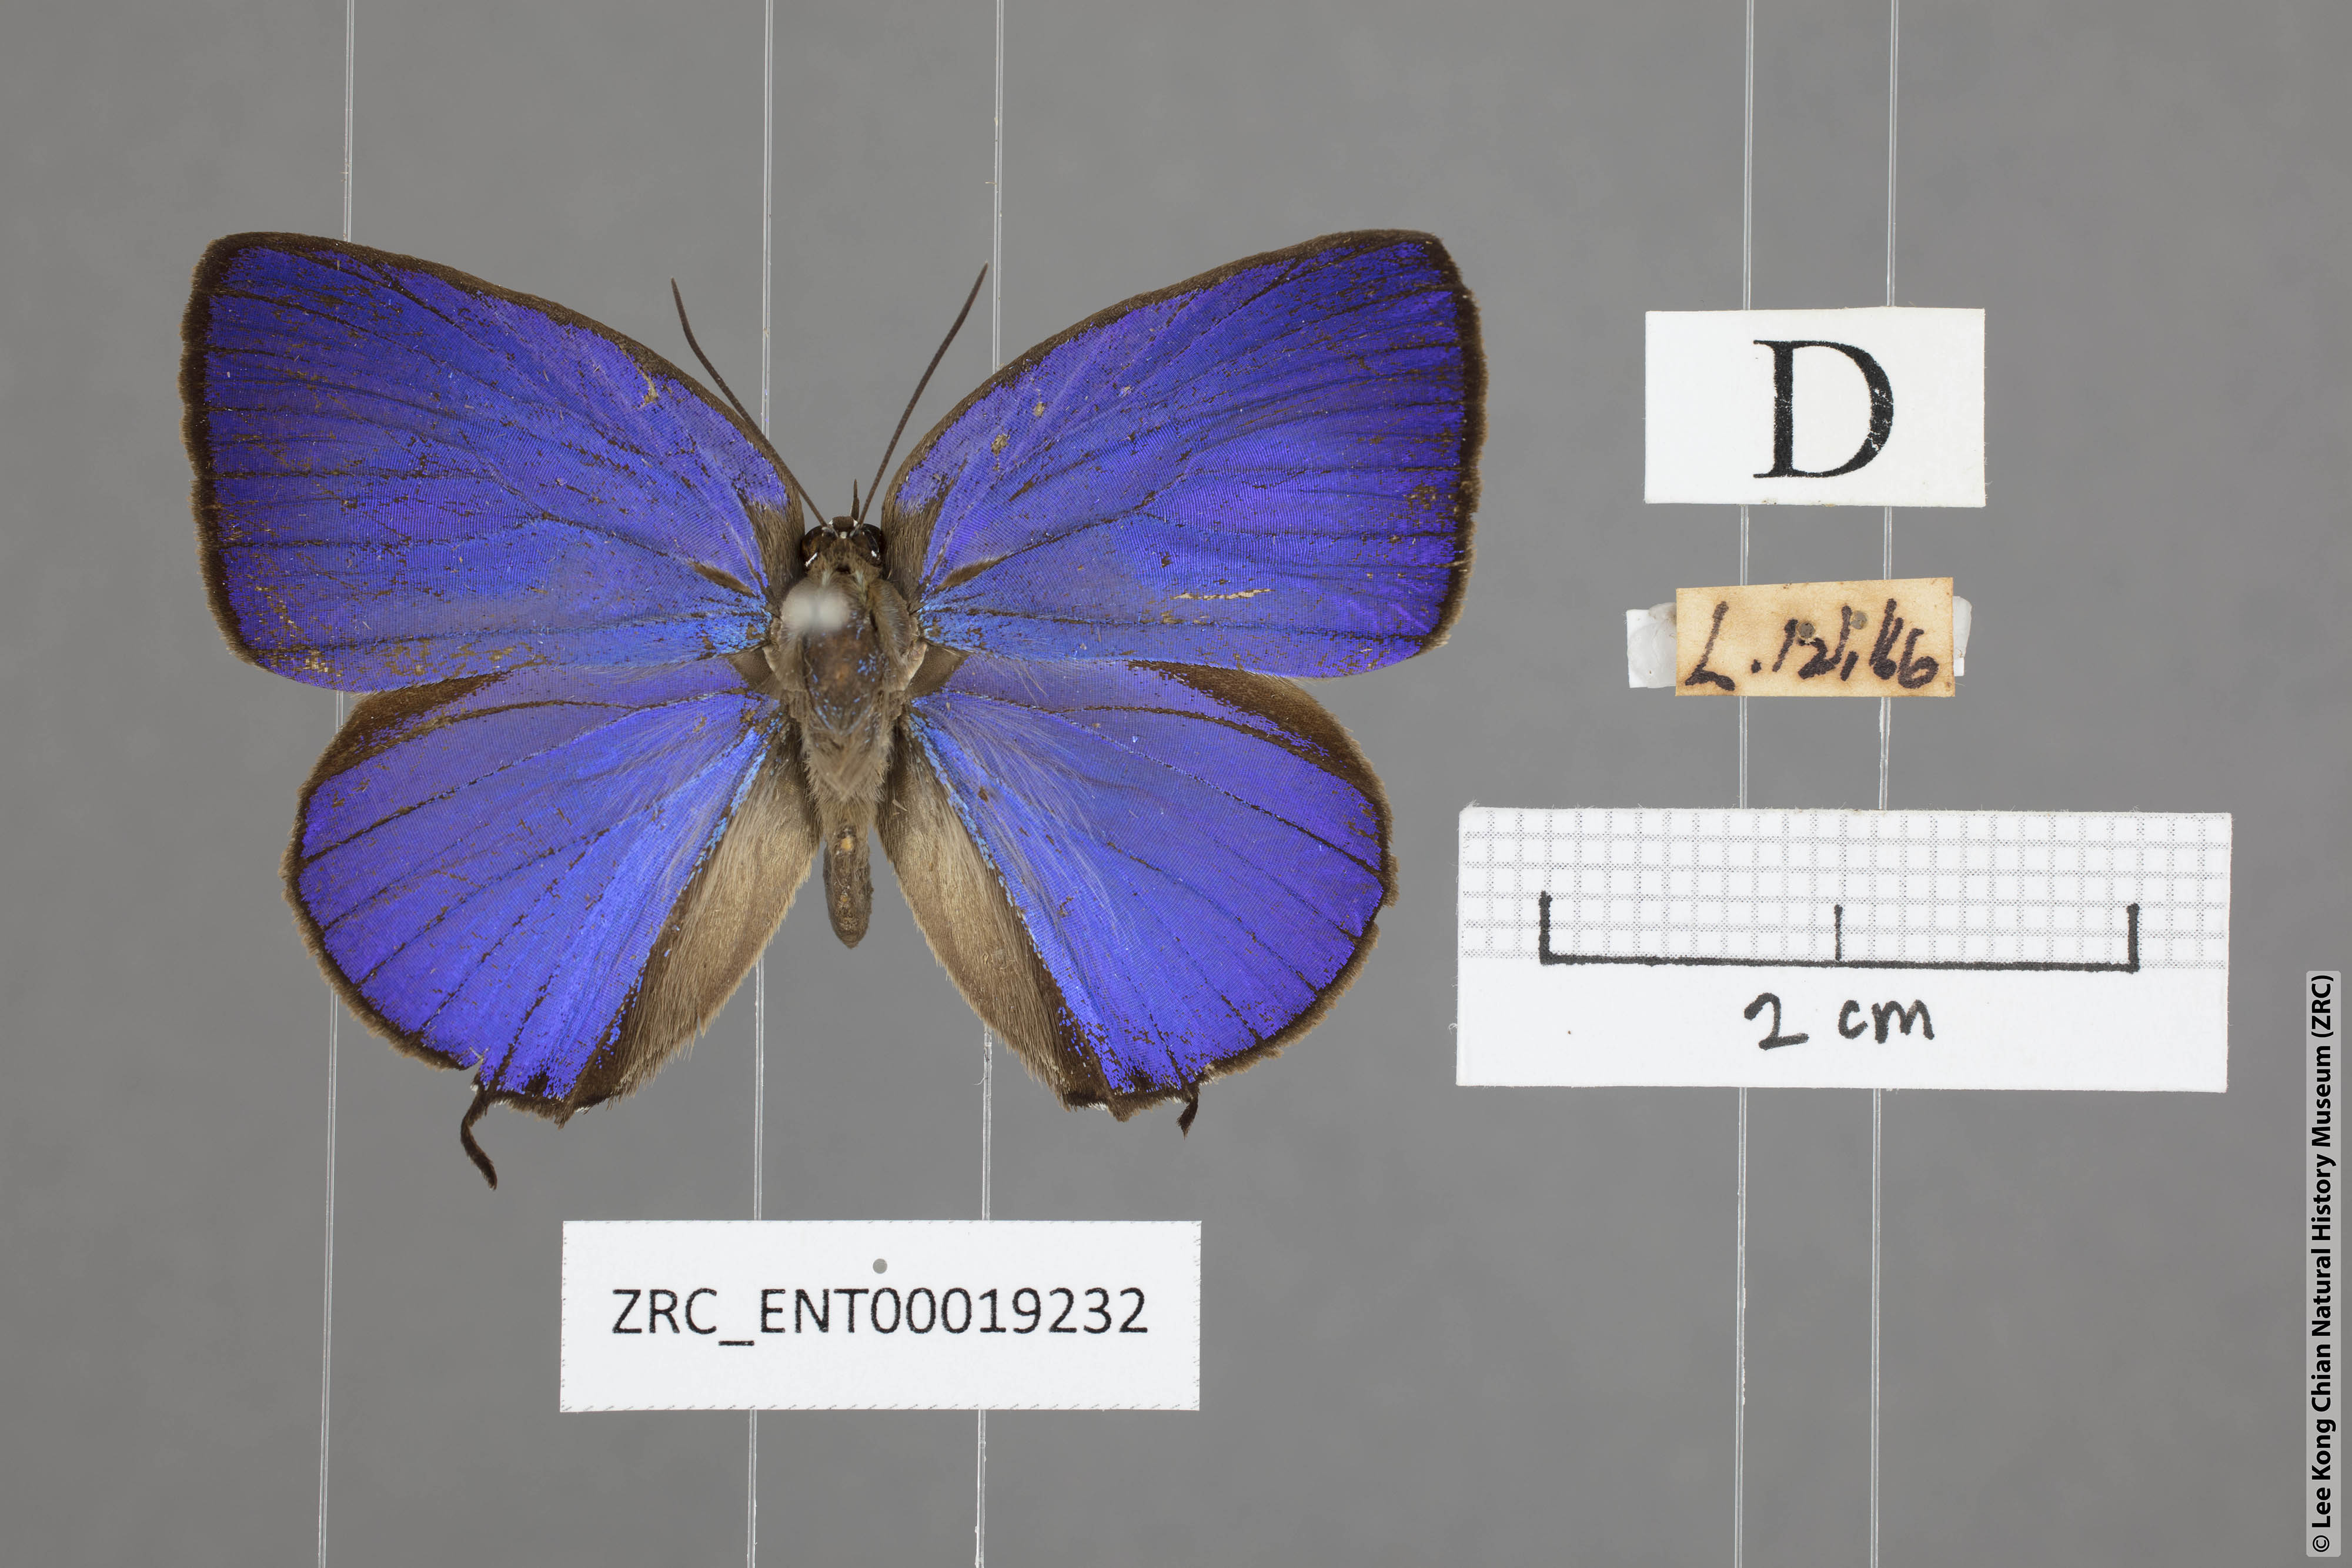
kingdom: Animalia
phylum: Arthropoda
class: Insecta
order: Lepidoptera
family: Lycaenidae
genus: Arhopala
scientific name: Arhopala atosia
